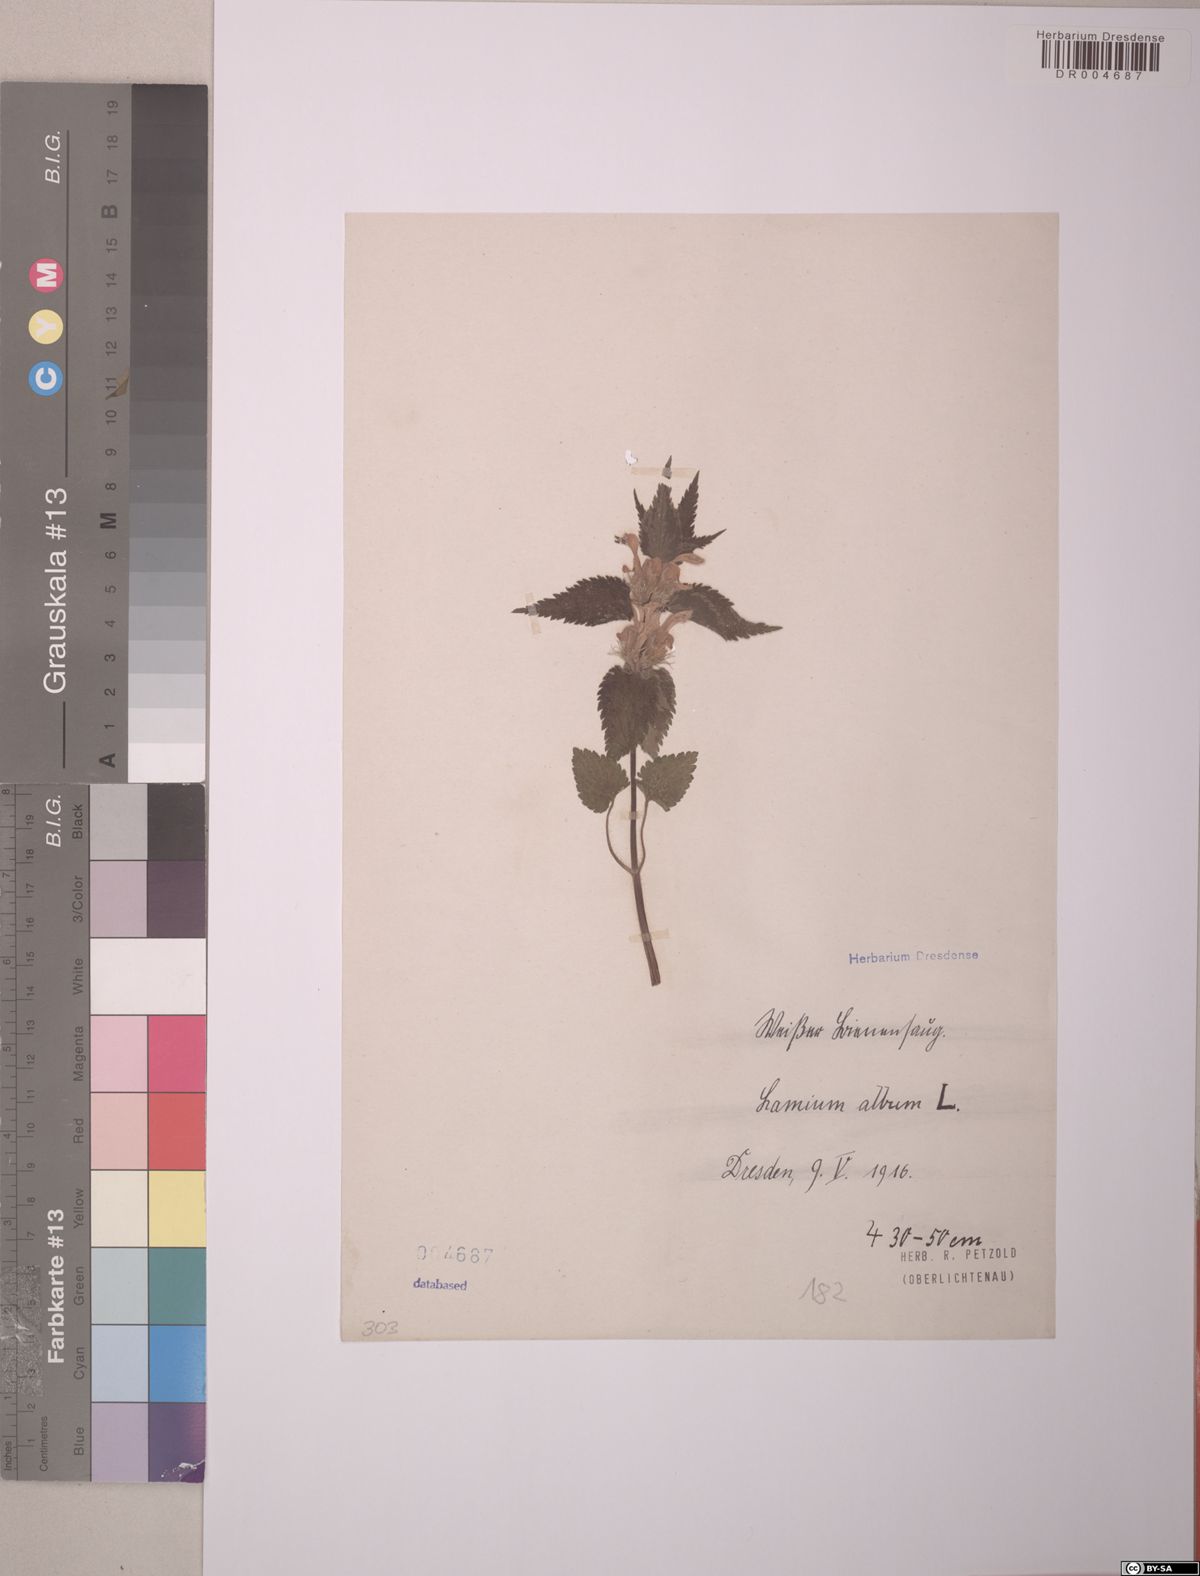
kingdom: Plantae
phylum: Tracheophyta
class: Magnoliopsida
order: Lamiales
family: Lamiaceae
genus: Lamium
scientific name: Lamium album
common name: White dead-nettle
